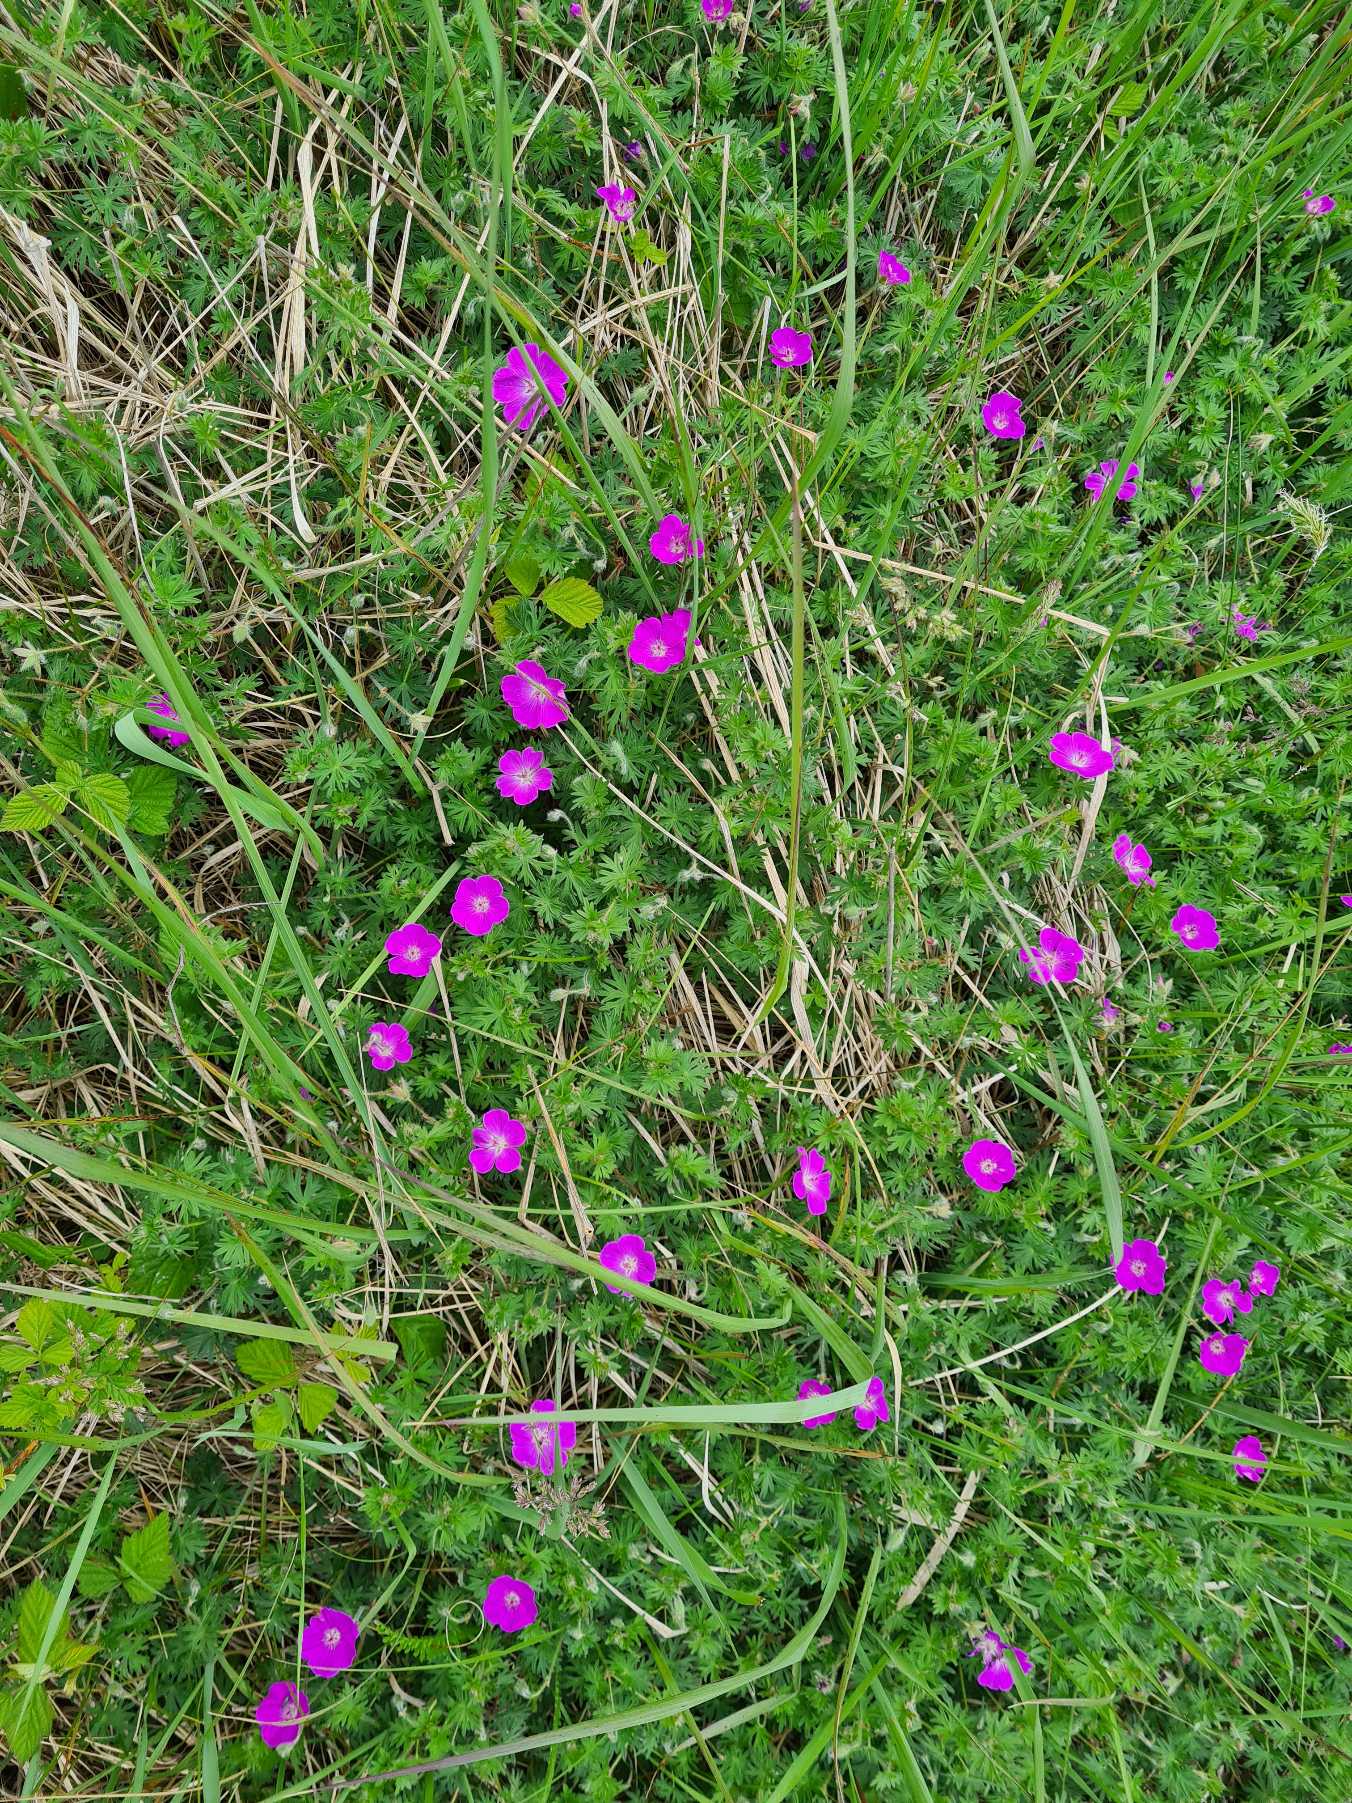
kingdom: Plantae
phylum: Tracheophyta
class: Magnoliopsida
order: Geraniales
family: Geraniaceae
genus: Geranium
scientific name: Geranium sanguineum
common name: Blodrød storkenæb
